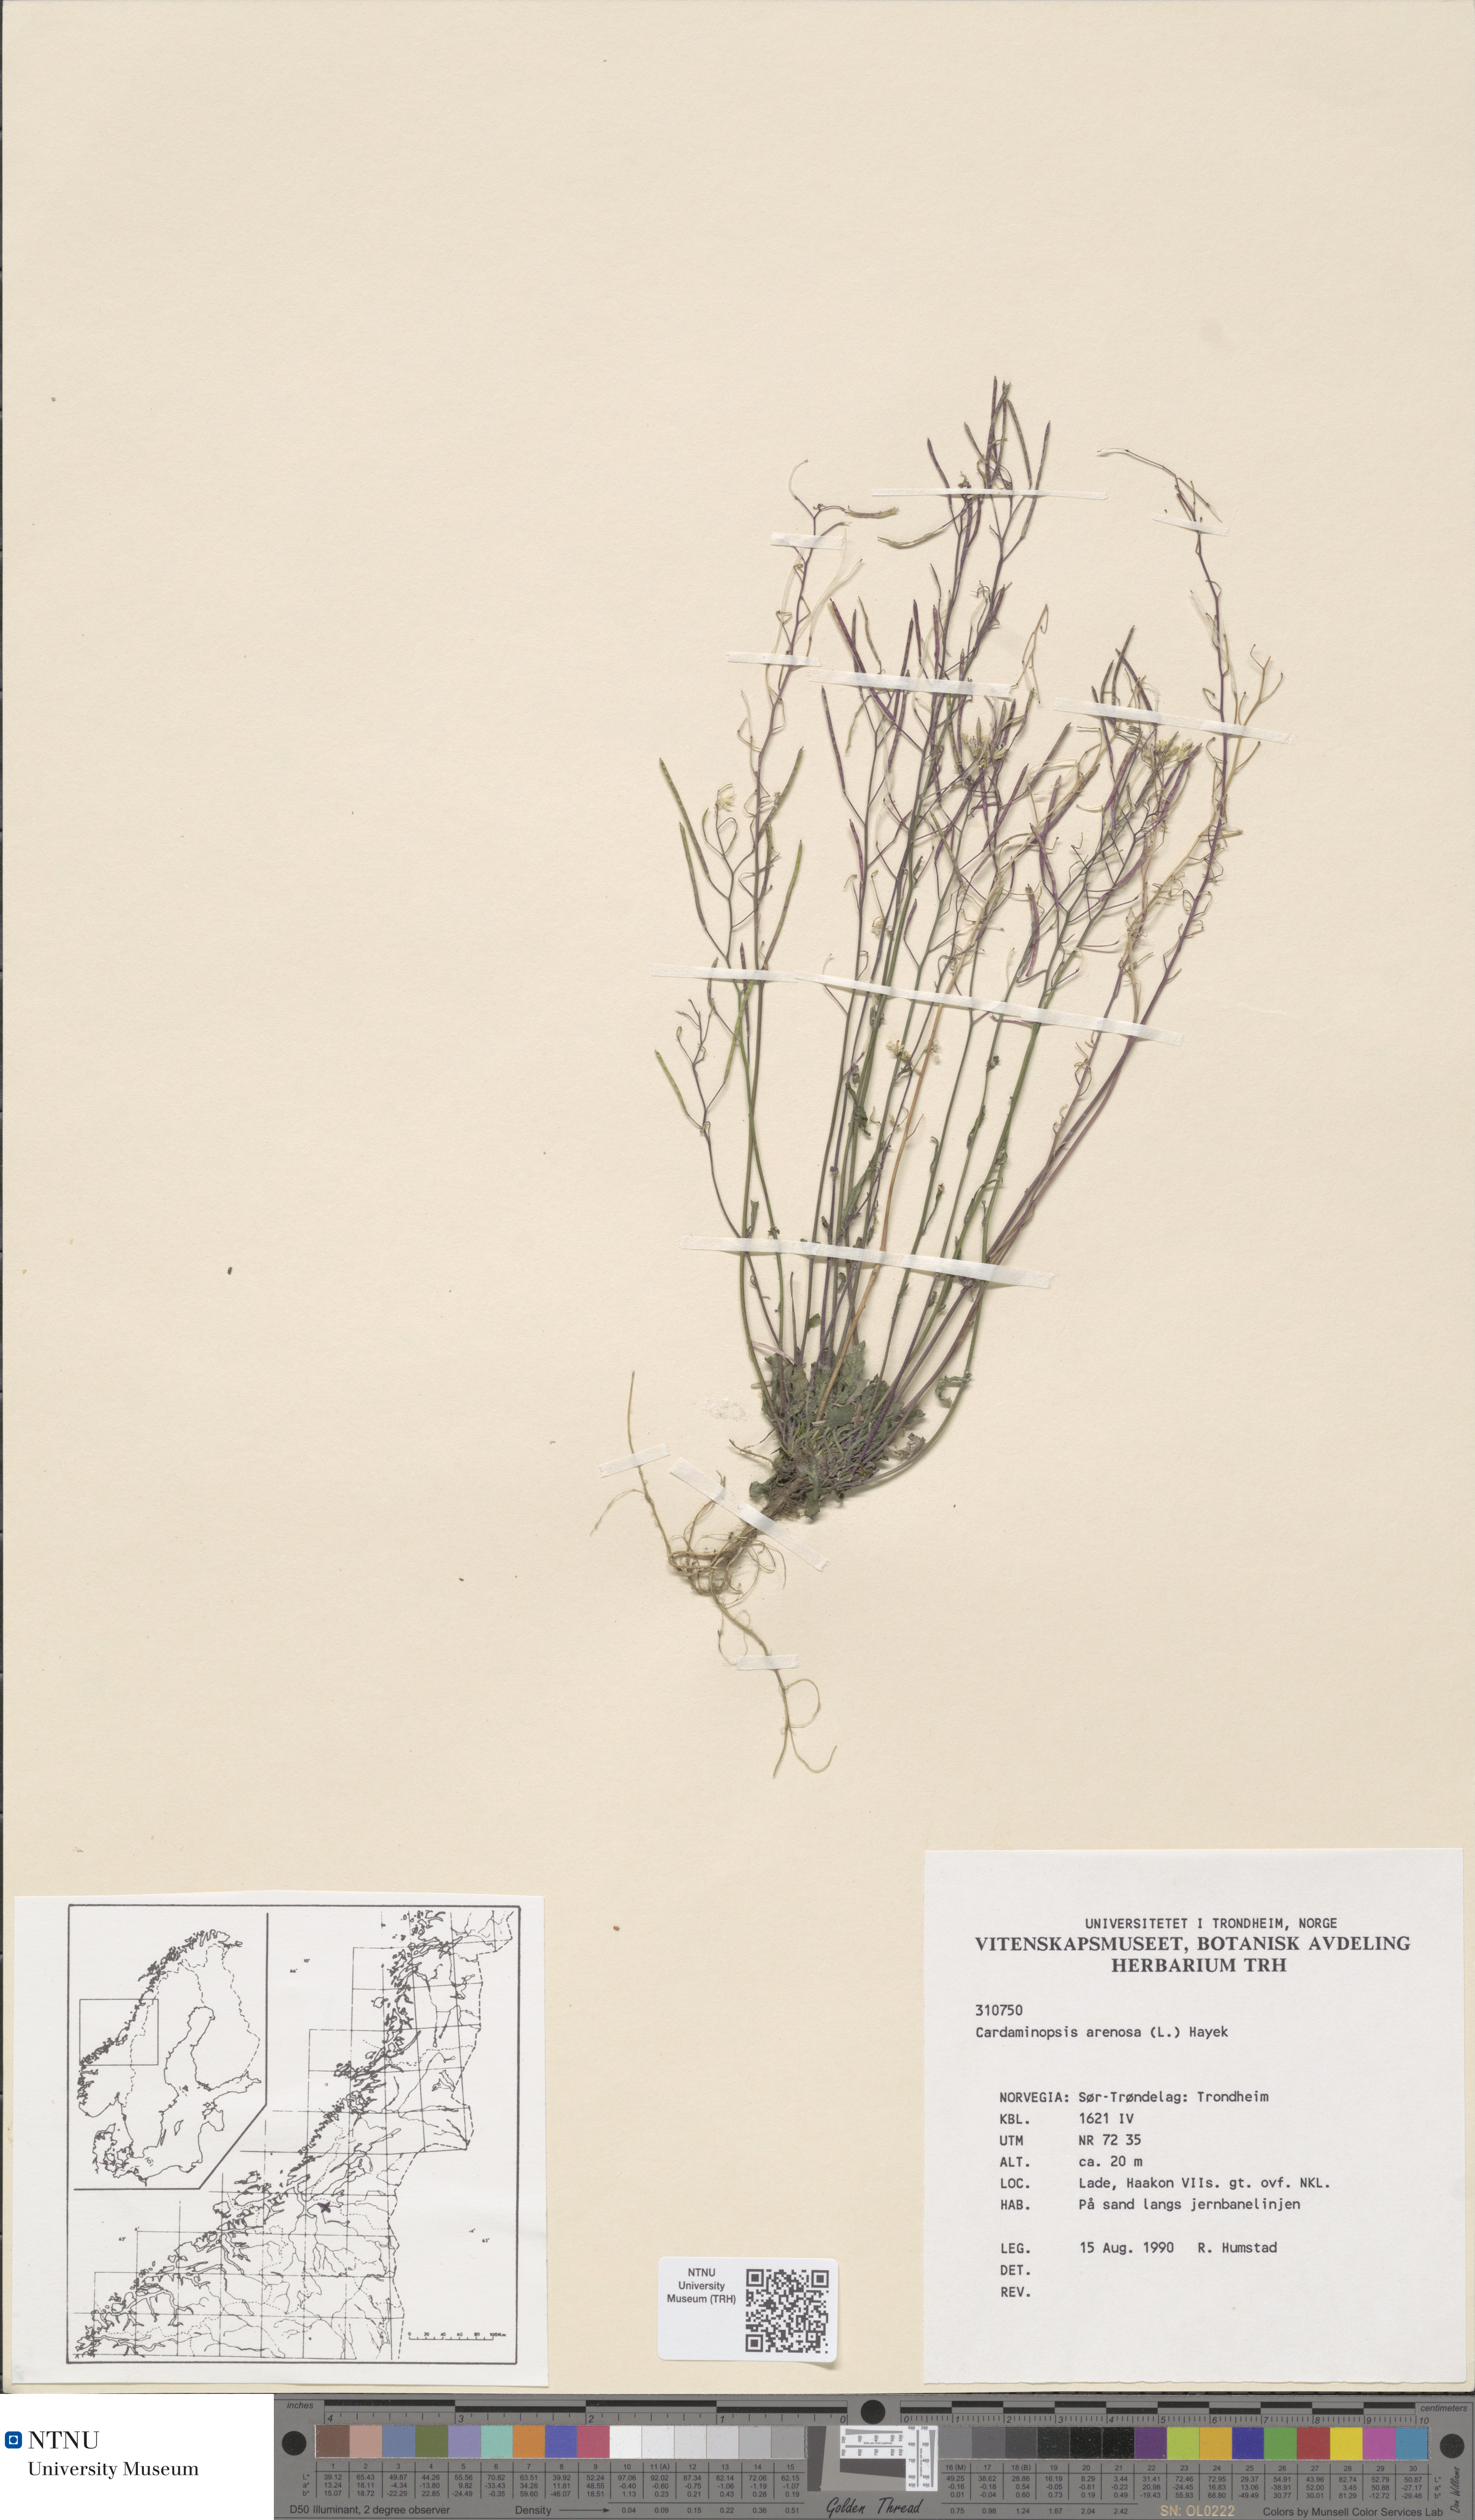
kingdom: Plantae
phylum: Tracheophyta
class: Magnoliopsida
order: Brassicales
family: Brassicaceae
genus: Arabidopsis
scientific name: Arabidopsis arenosa
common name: Sand rock-cress
